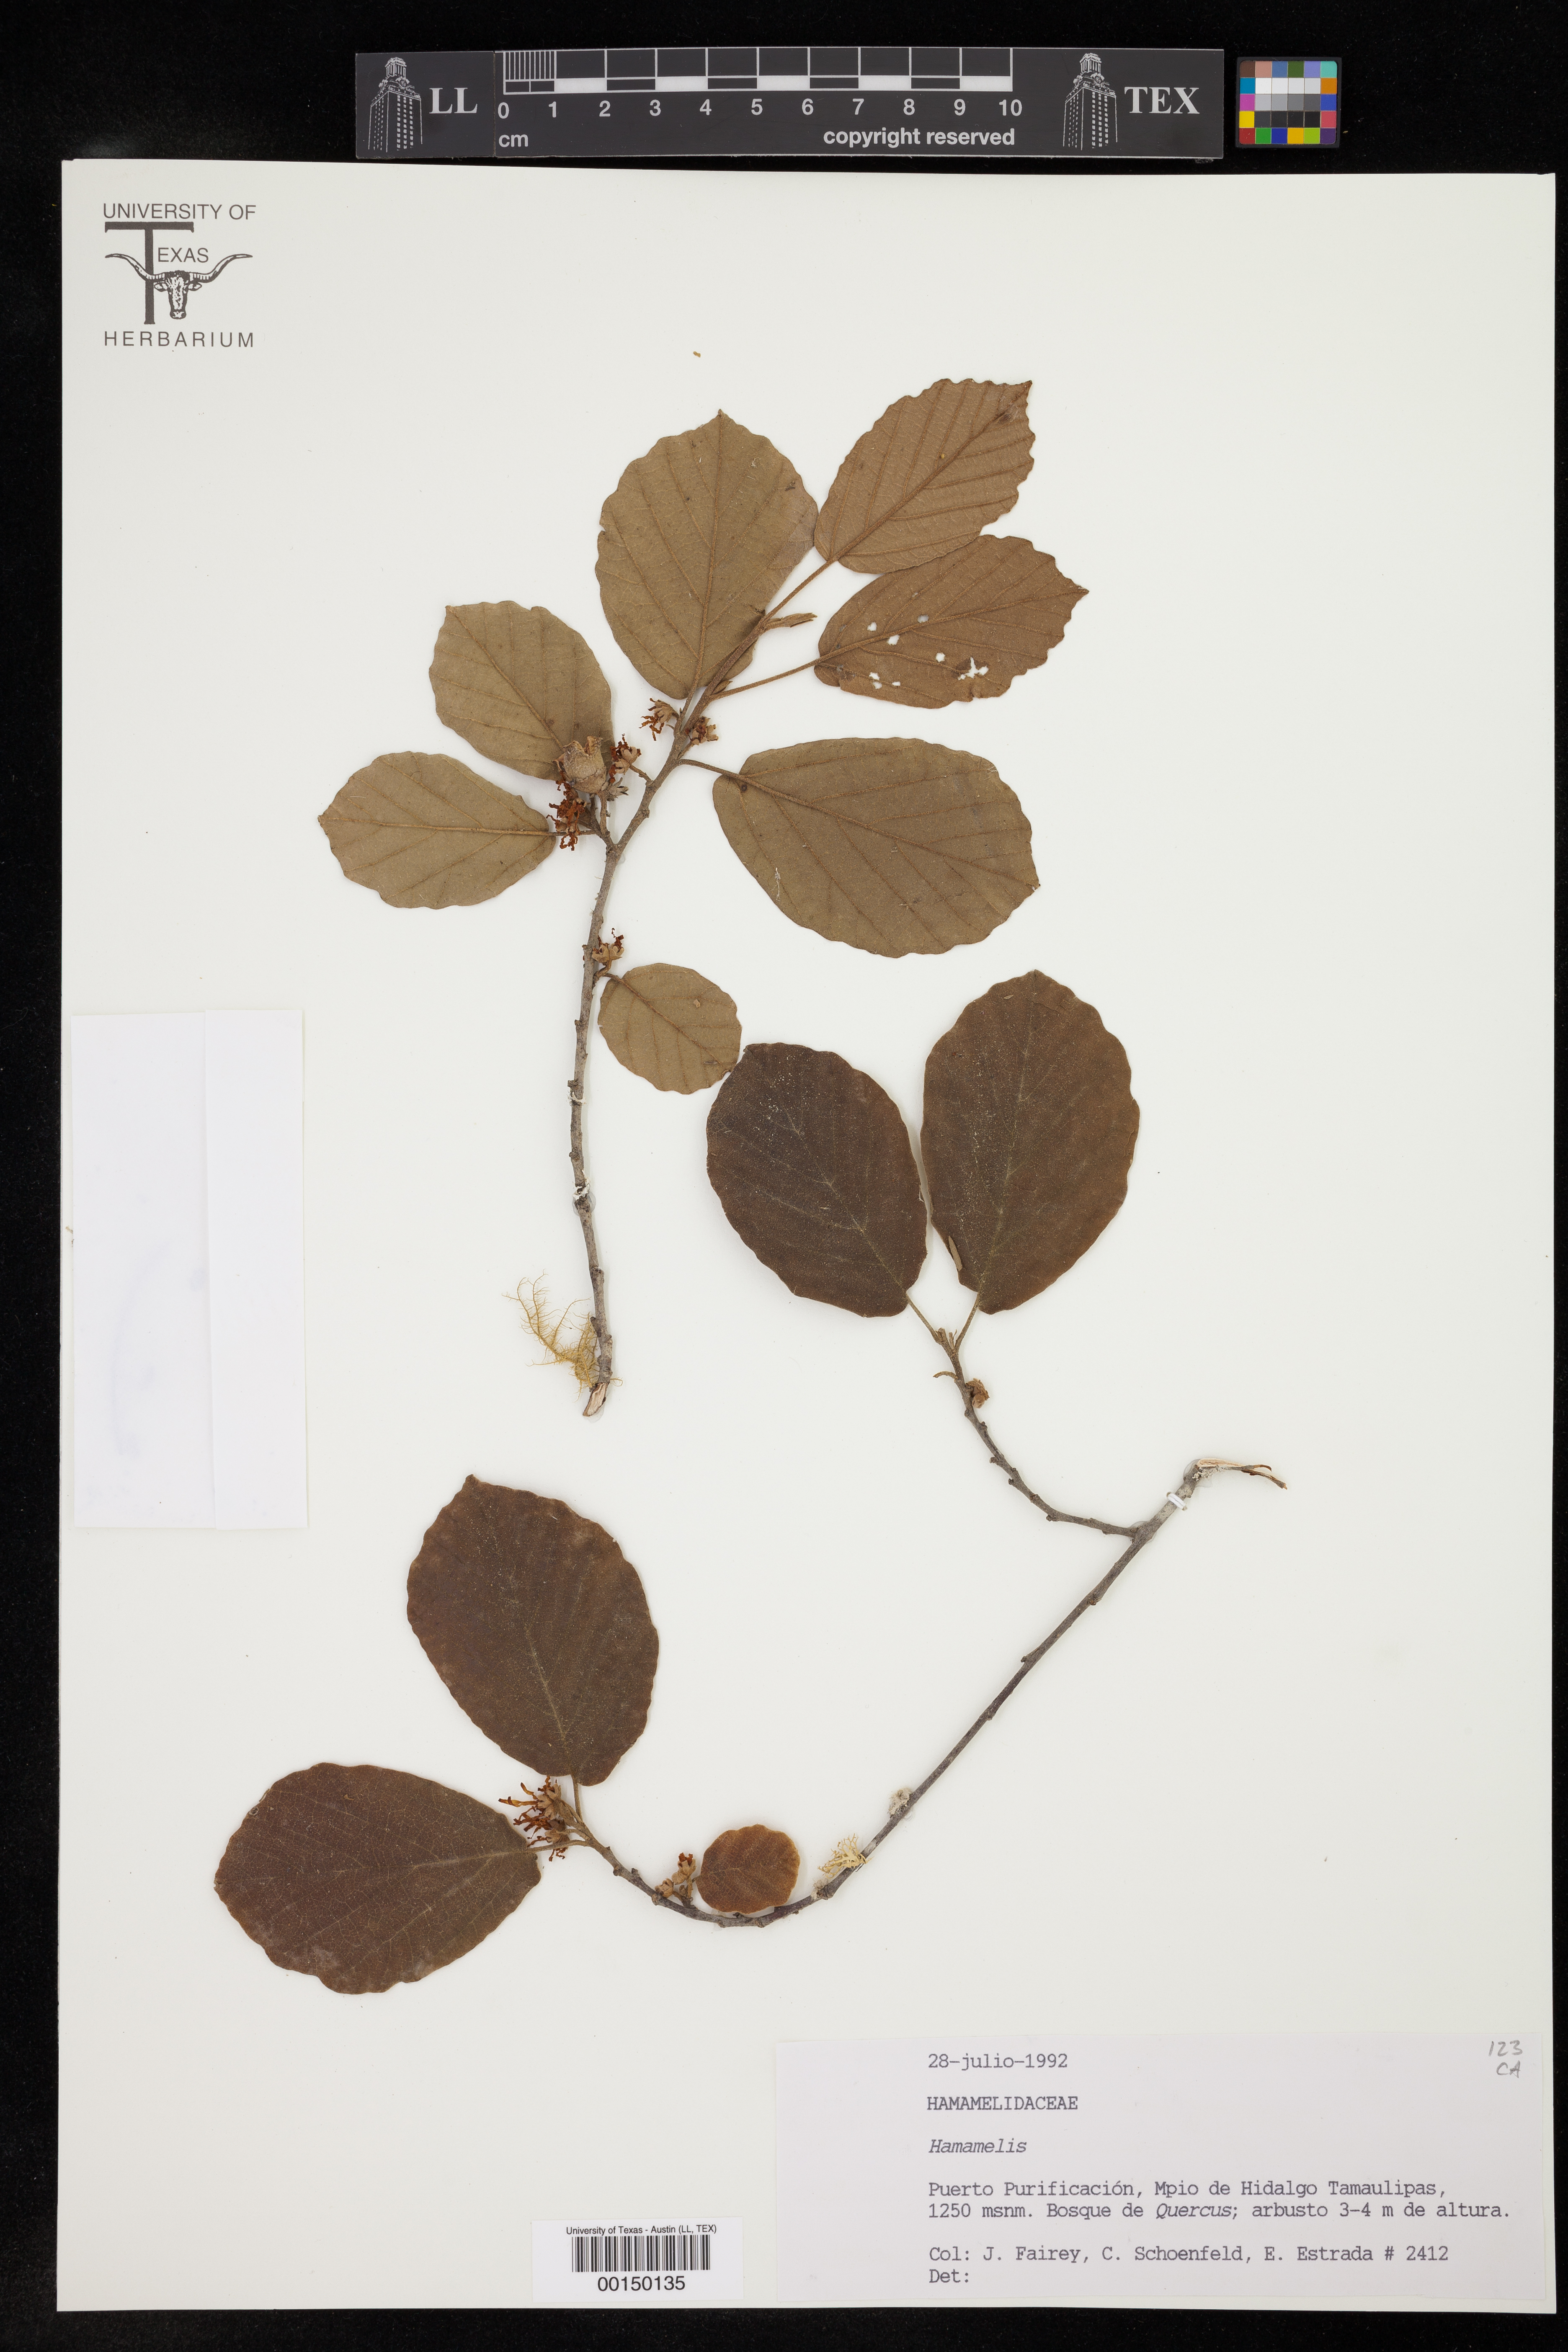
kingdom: Plantae
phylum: Tracheophyta
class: Magnoliopsida
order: Saxifragales
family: Hamamelidaceae
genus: Hamamelis
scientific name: Hamamelis
